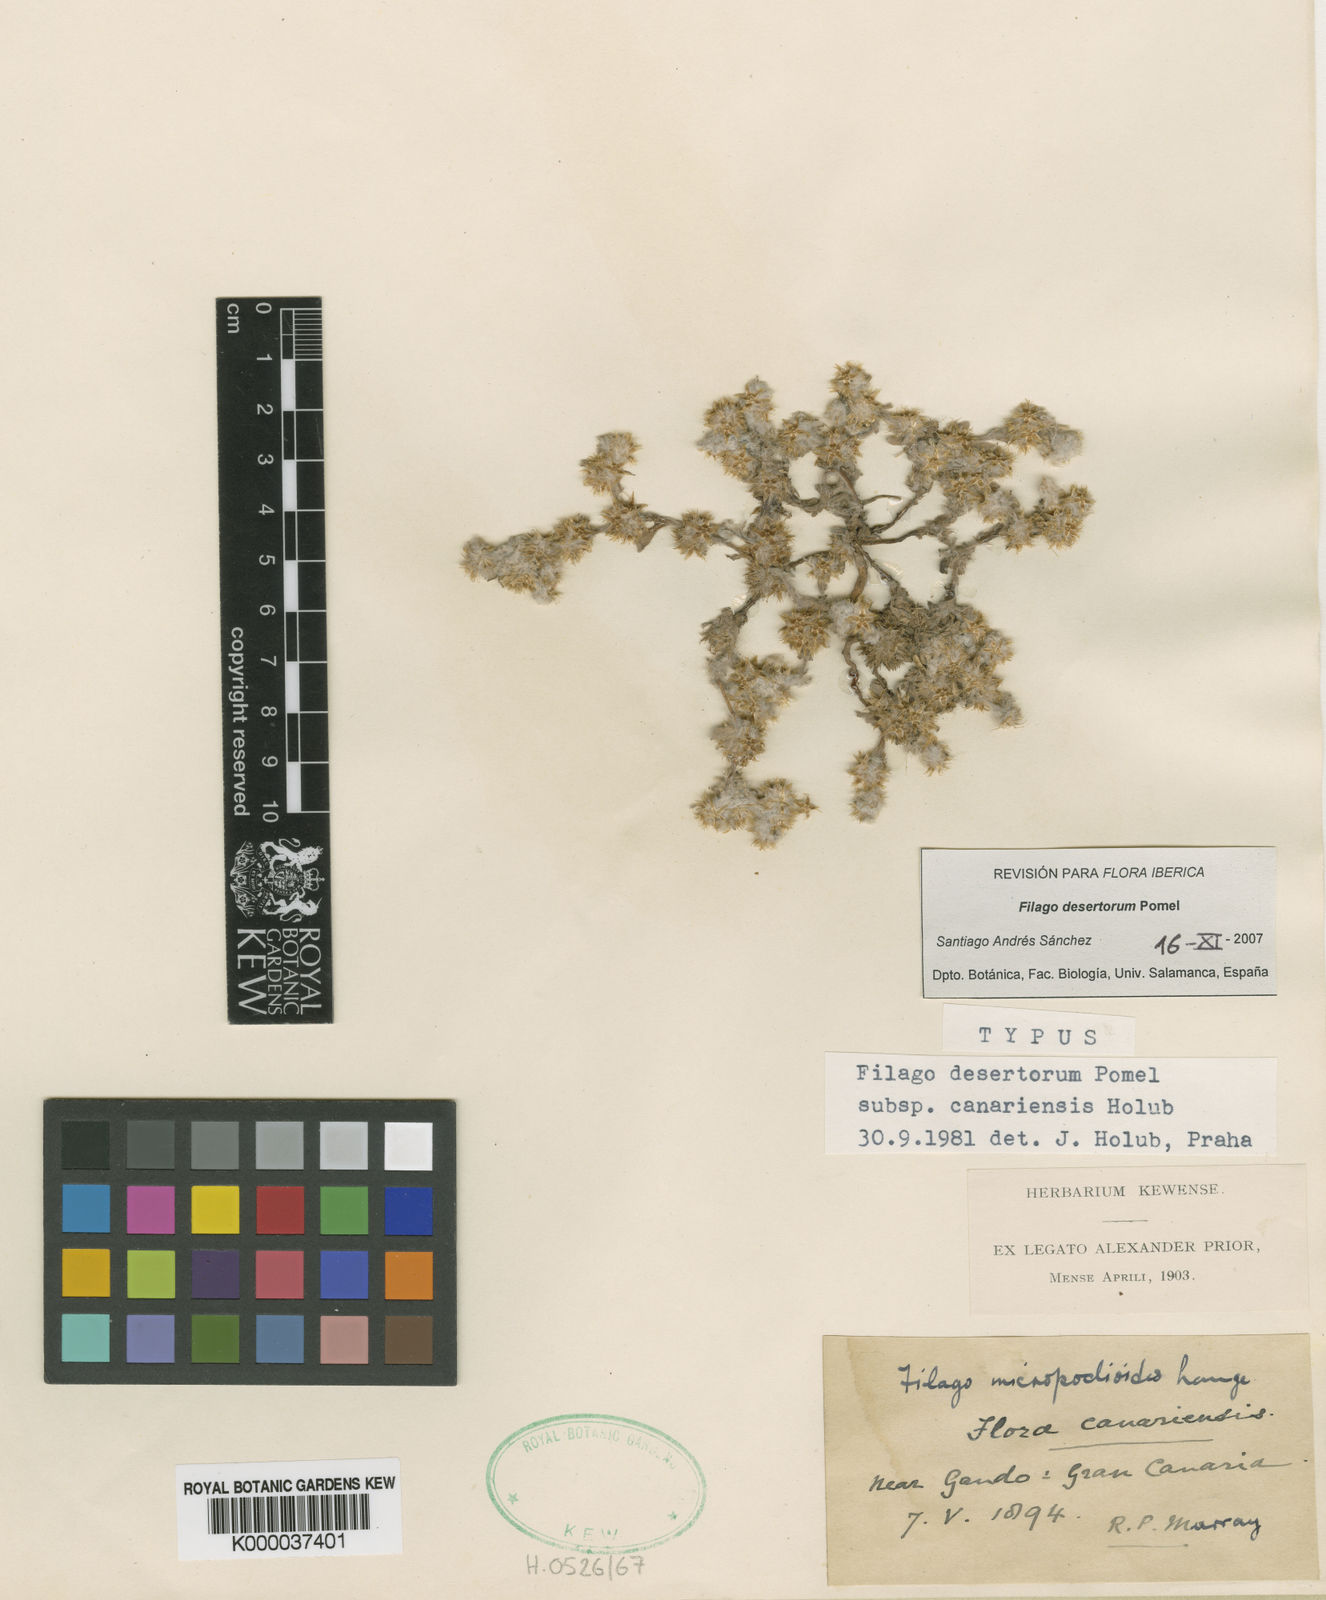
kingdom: Plantae
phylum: Tracheophyta
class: Magnoliopsida
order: Asterales
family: Asteraceae
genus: Filago
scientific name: Filago desertorum
